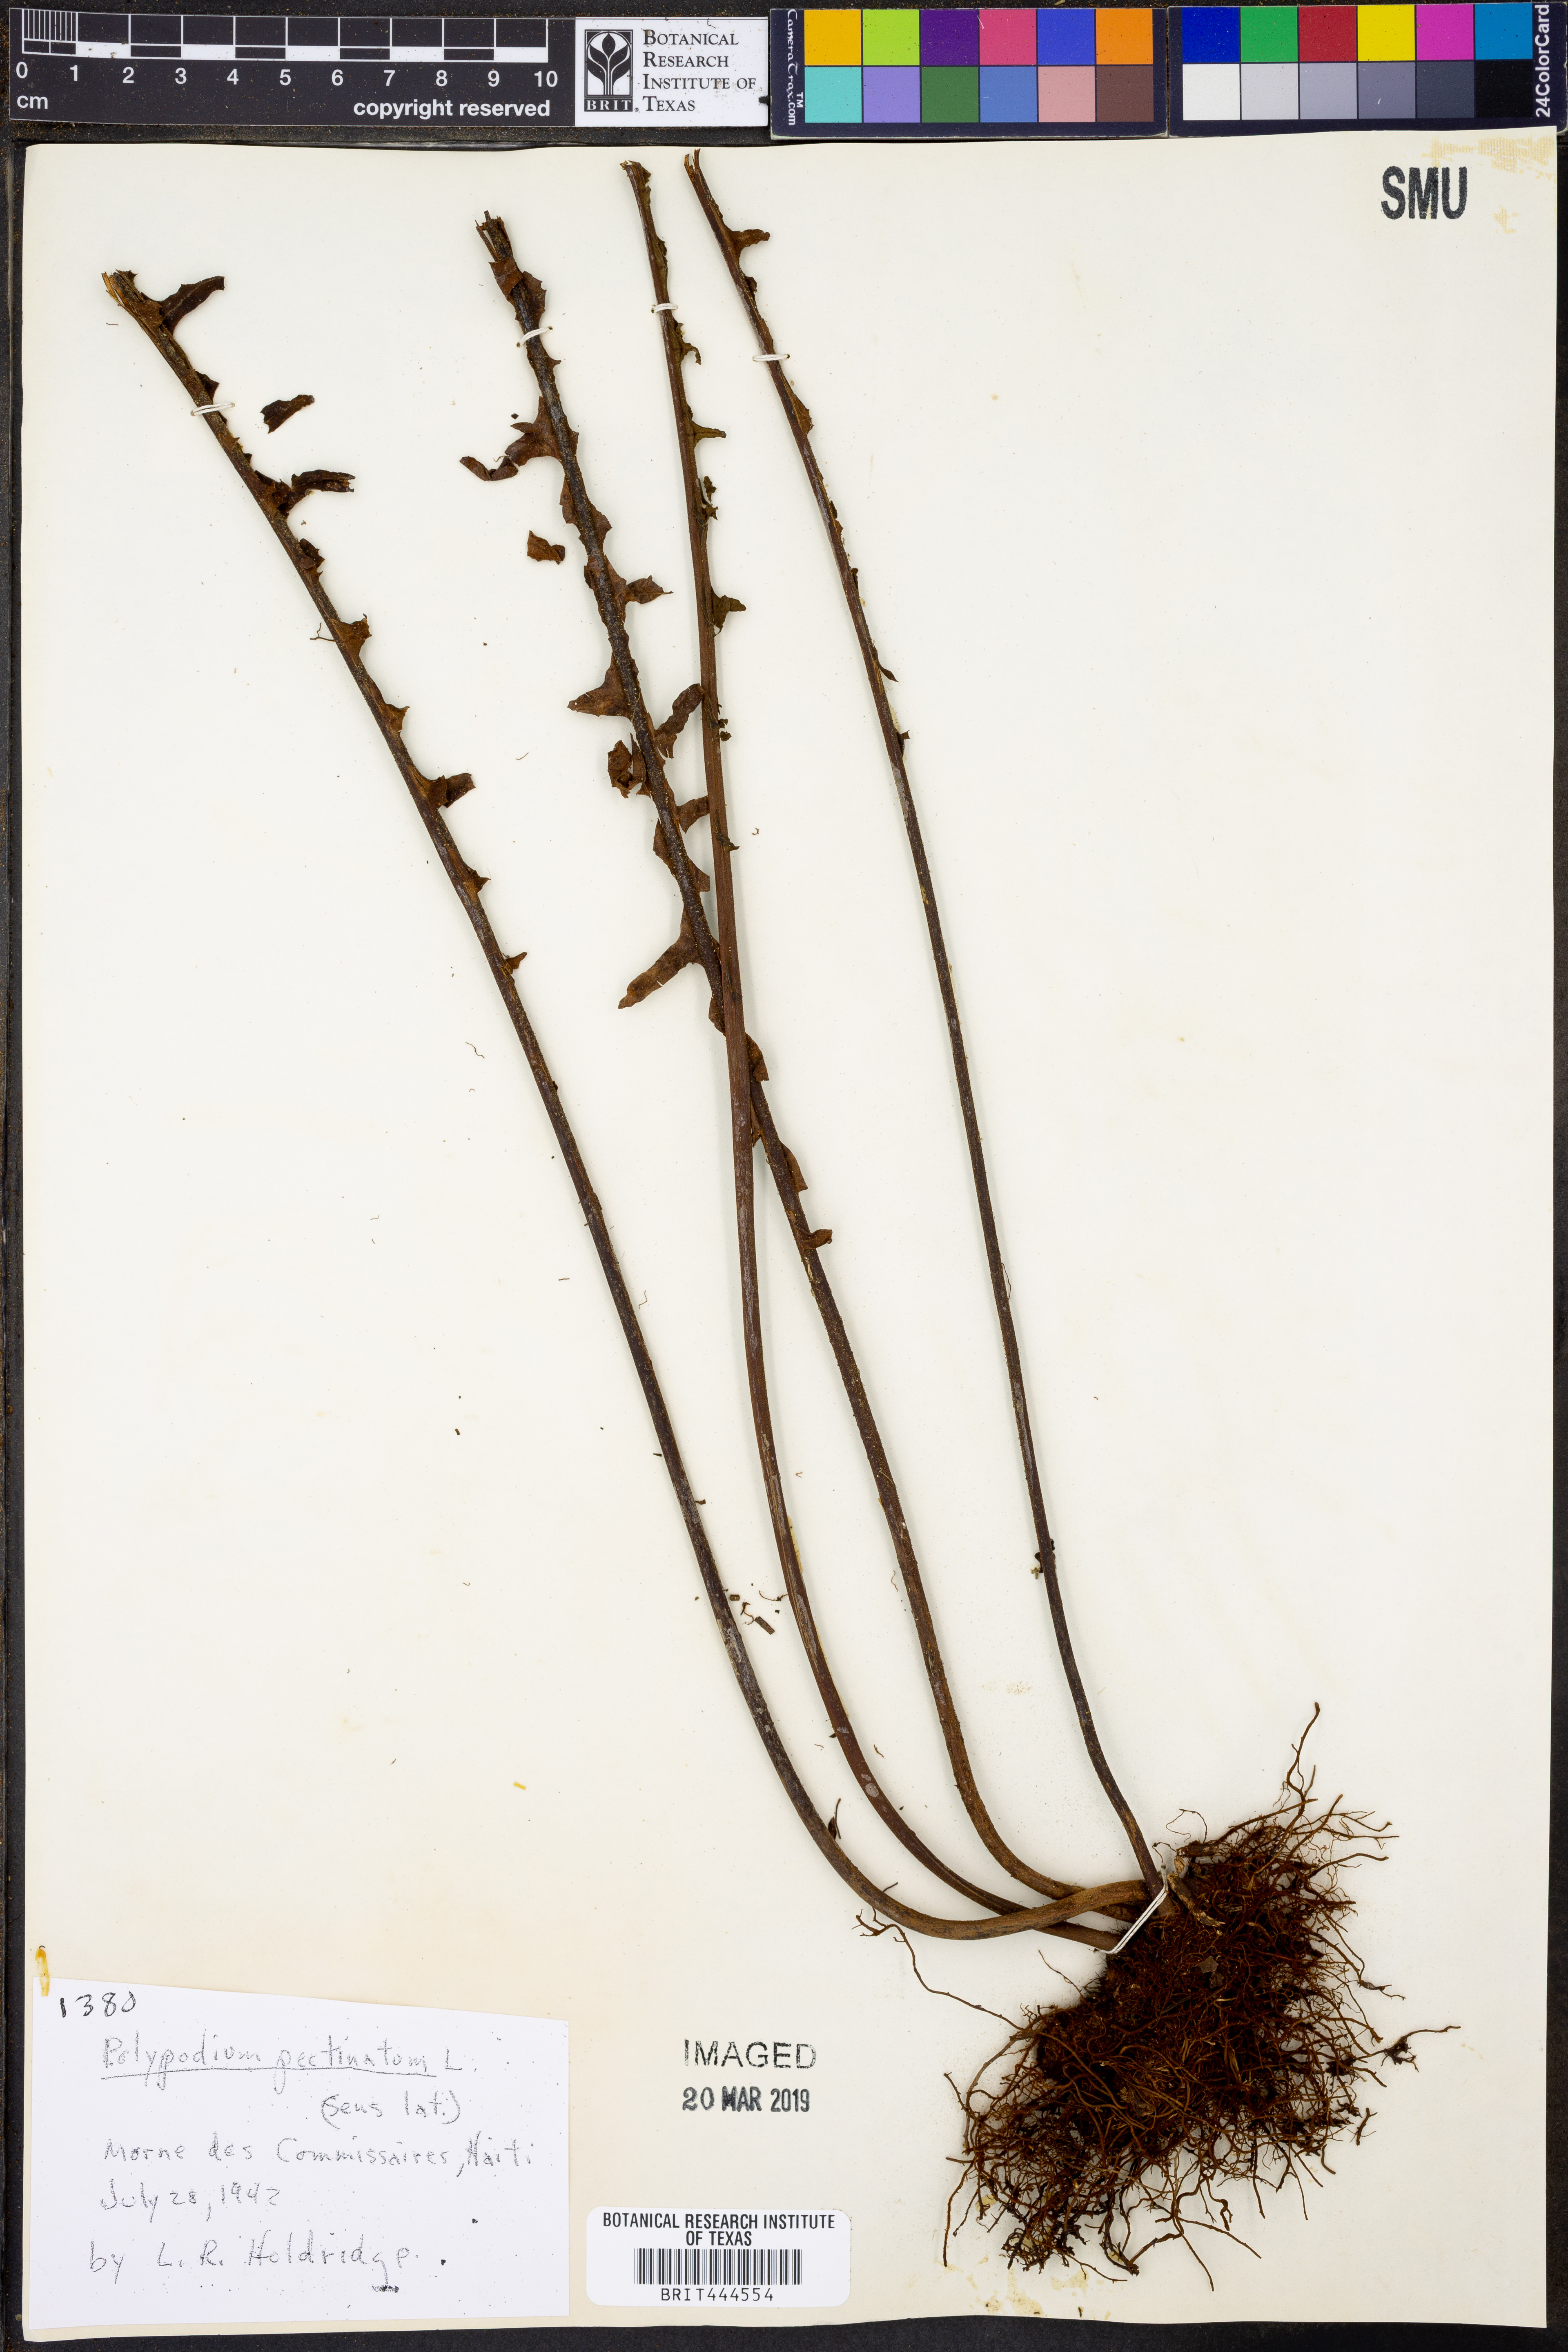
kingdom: Plantae
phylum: Tracheophyta
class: Polypodiopsida
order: Polypodiales
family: Polypodiaceae
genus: Pecluma
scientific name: Pecluma pectinata
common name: Msasa fern
